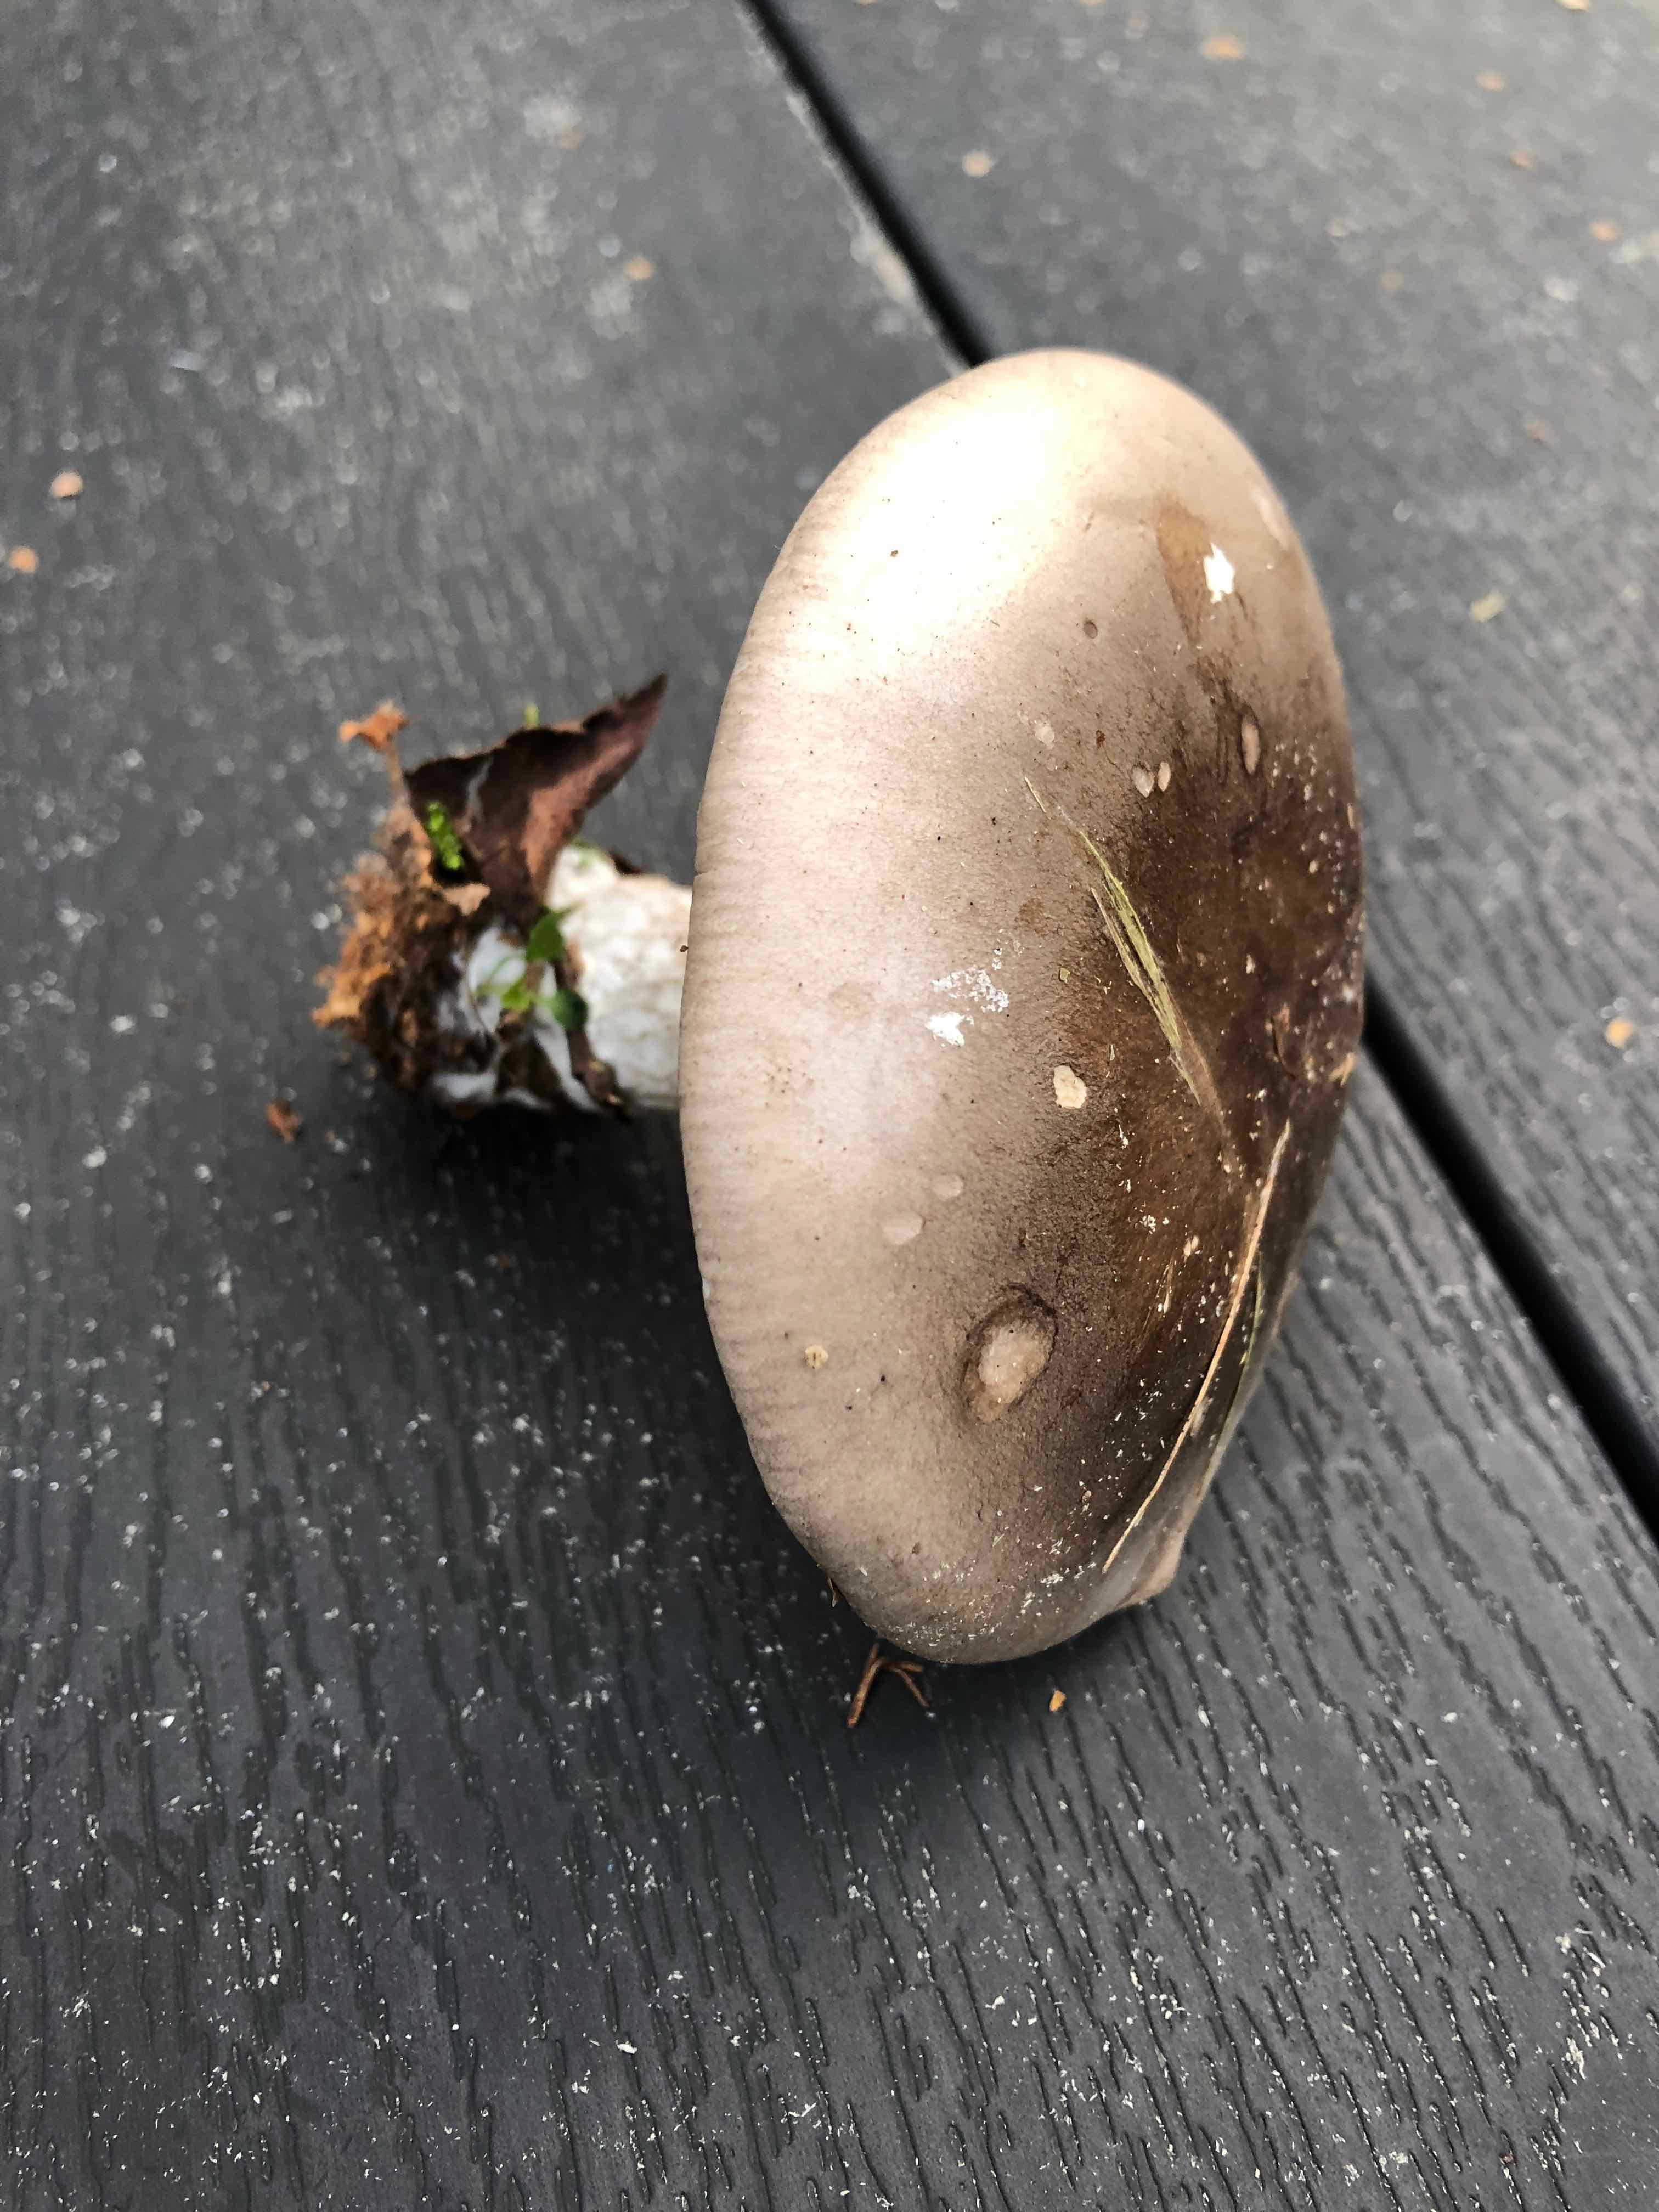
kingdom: Fungi
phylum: Basidiomycota
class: Agaricomycetes
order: Agaricales
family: Tricholomataceae
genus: Clitocybe
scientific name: Clitocybe nebularis
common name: tåge-tragthat
